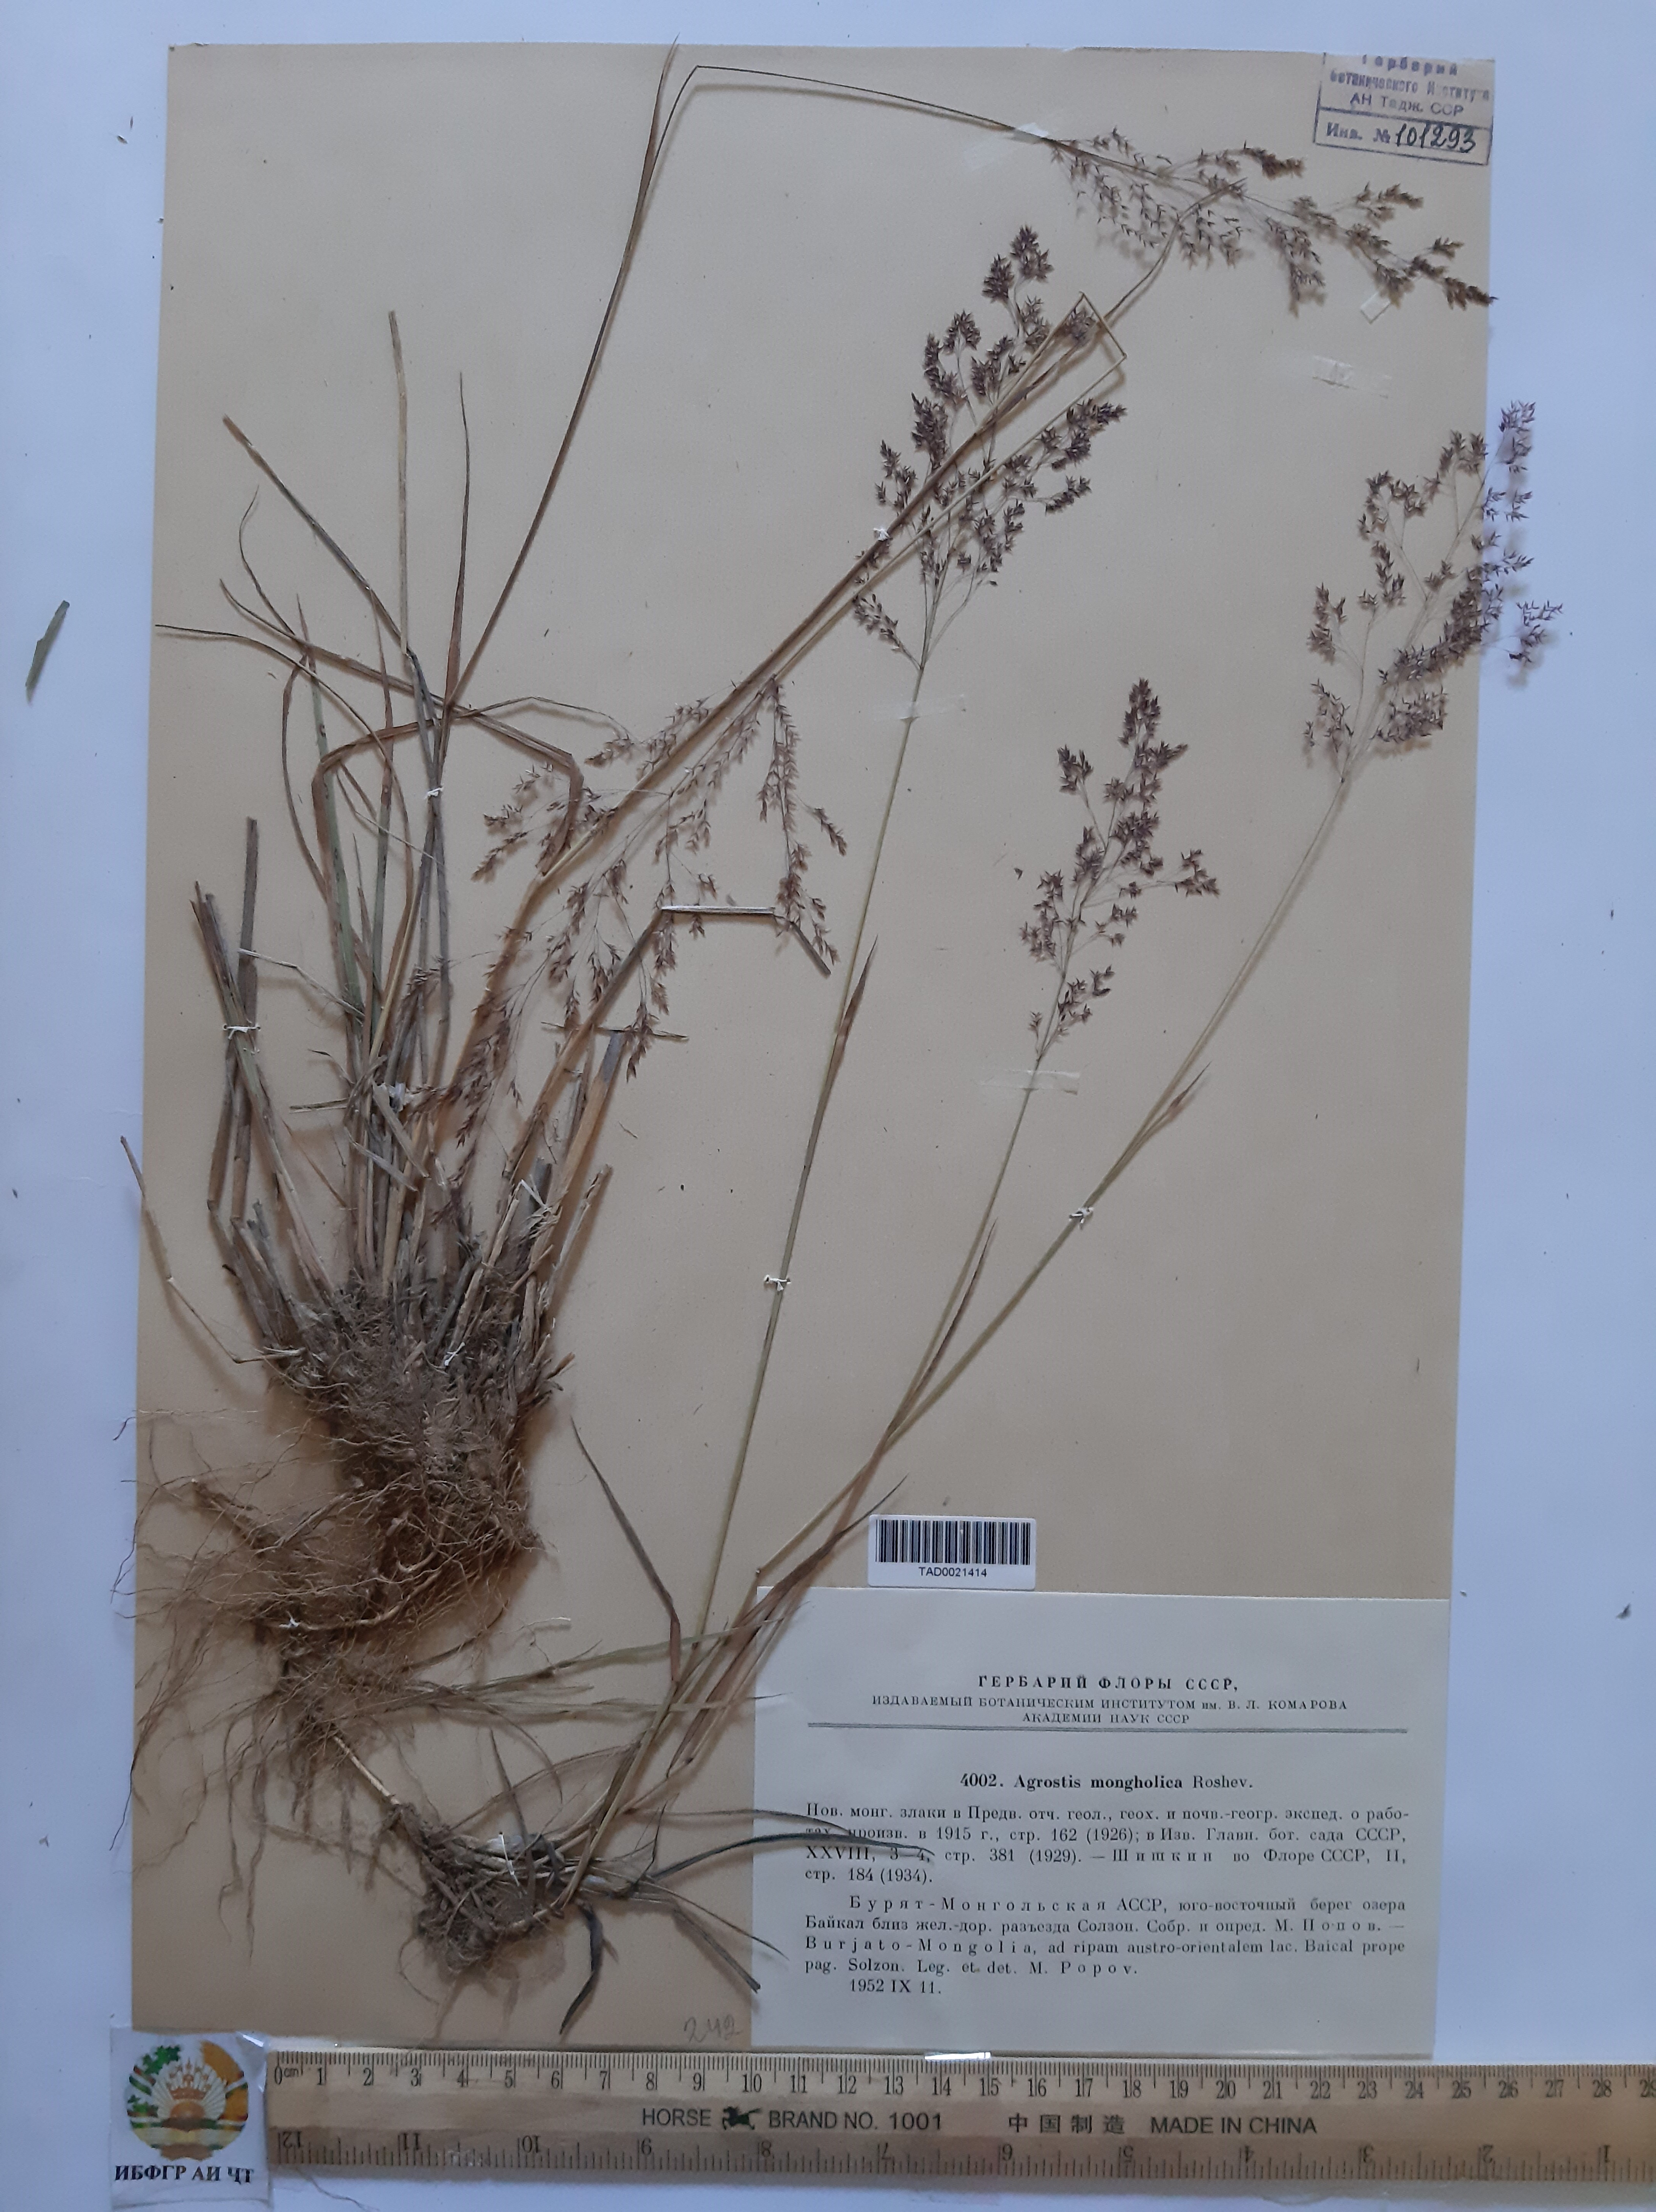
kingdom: Plantae
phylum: Tracheophyta
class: Liliopsida
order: Poales
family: Poaceae
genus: Agrostis
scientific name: Agrostis divaricatissima
